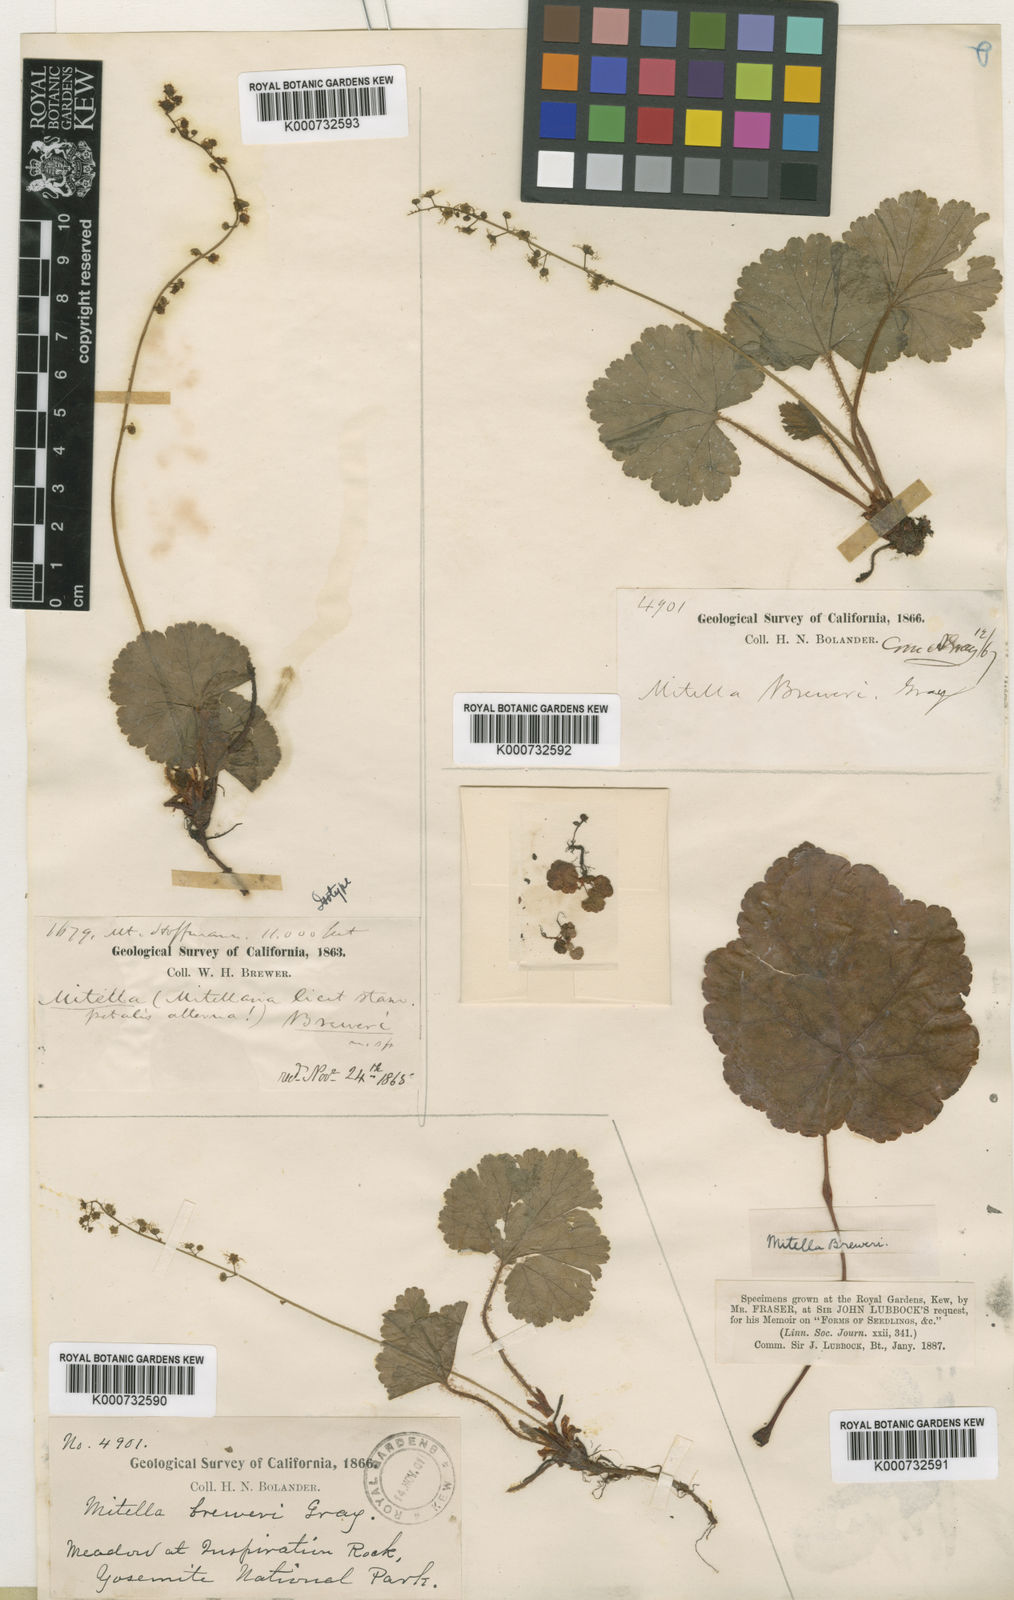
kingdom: Plantae
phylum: Tracheophyta
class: Magnoliopsida
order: Saxifragales
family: Saxifragaceae
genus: Brewerimitella
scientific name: Brewerimitella breweri
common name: Brewer's bishop's-cap
